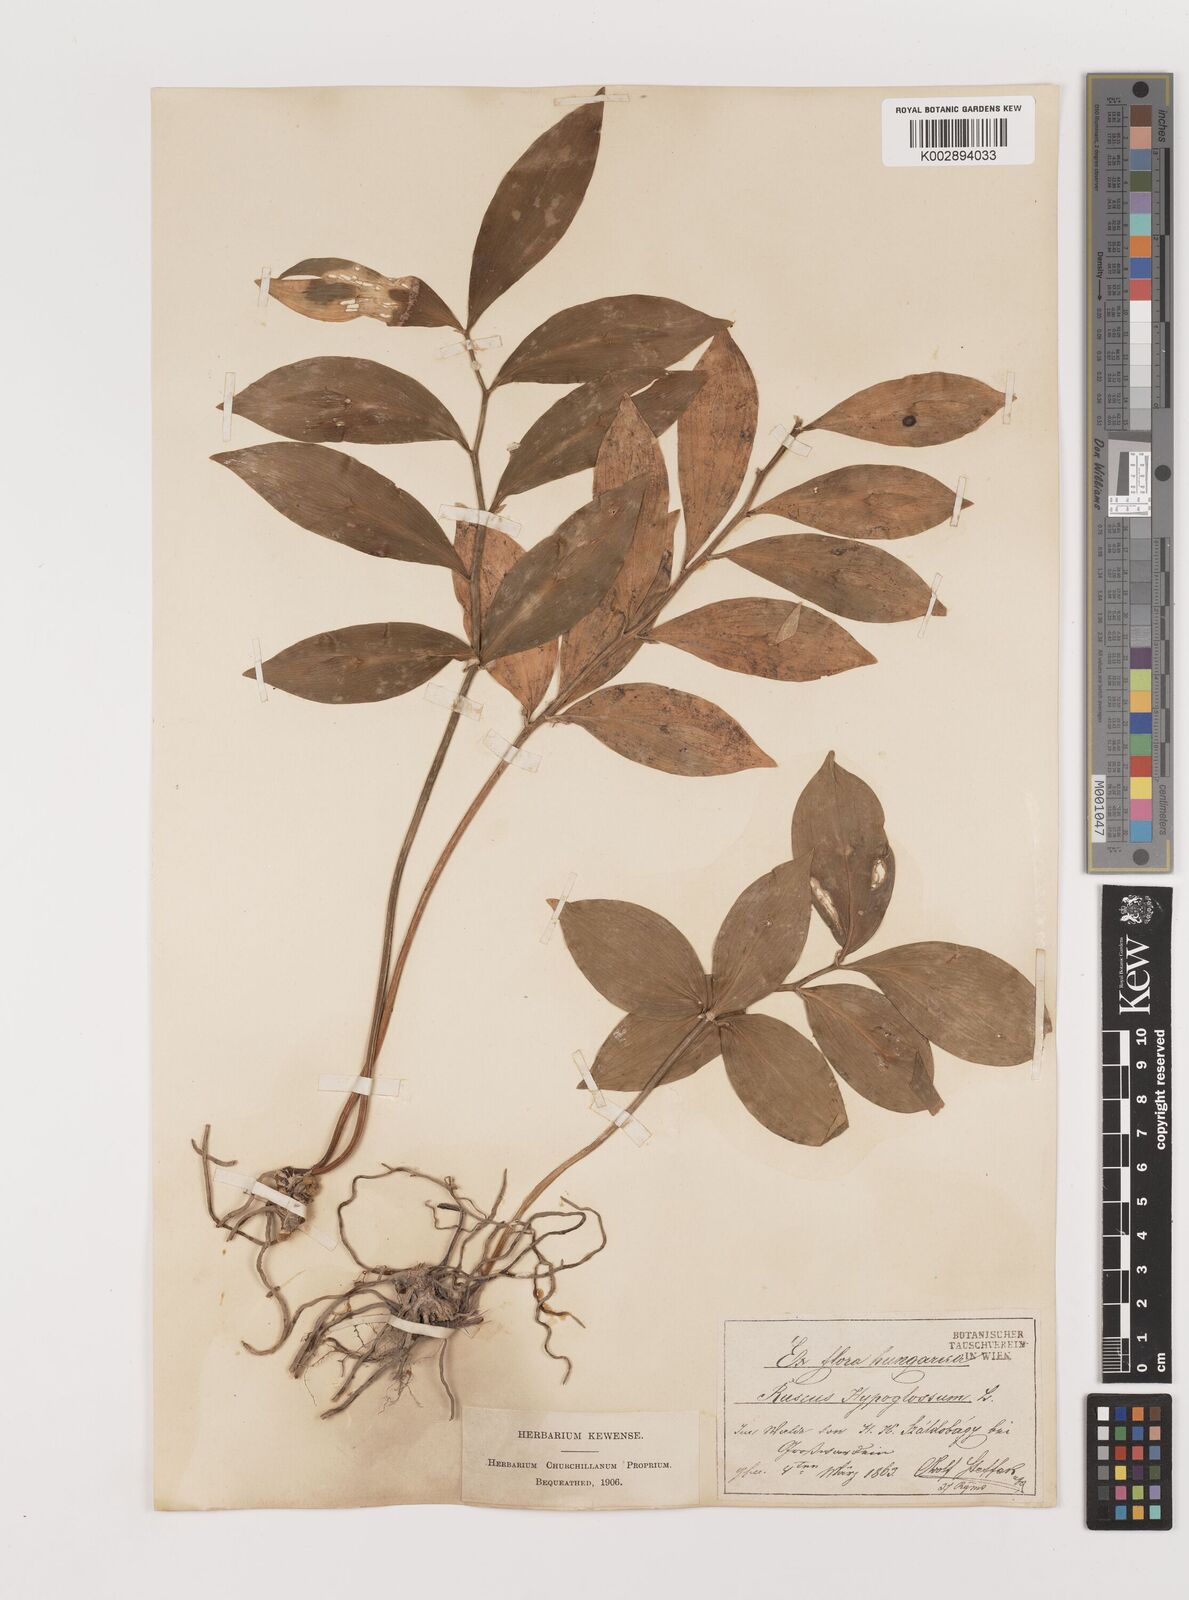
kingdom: Plantae
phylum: Tracheophyta
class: Liliopsida
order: Asparagales
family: Asparagaceae
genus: Ruscus
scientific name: Ruscus hypoglossum
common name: Spineless butcher's-broom
